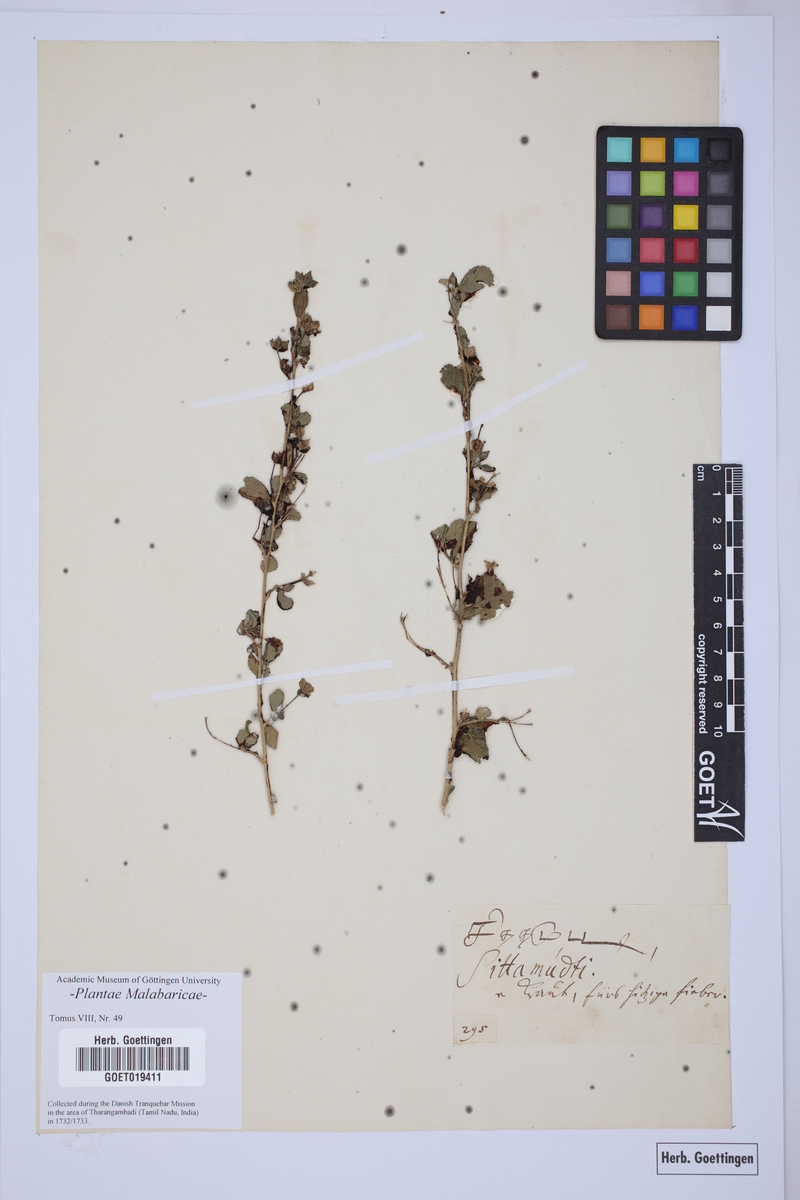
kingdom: Plantae
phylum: Tracheophyta
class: Magnoliopsida
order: Malvales
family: Malvaceae
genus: Pavonia
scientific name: Pavonia zeylanica
